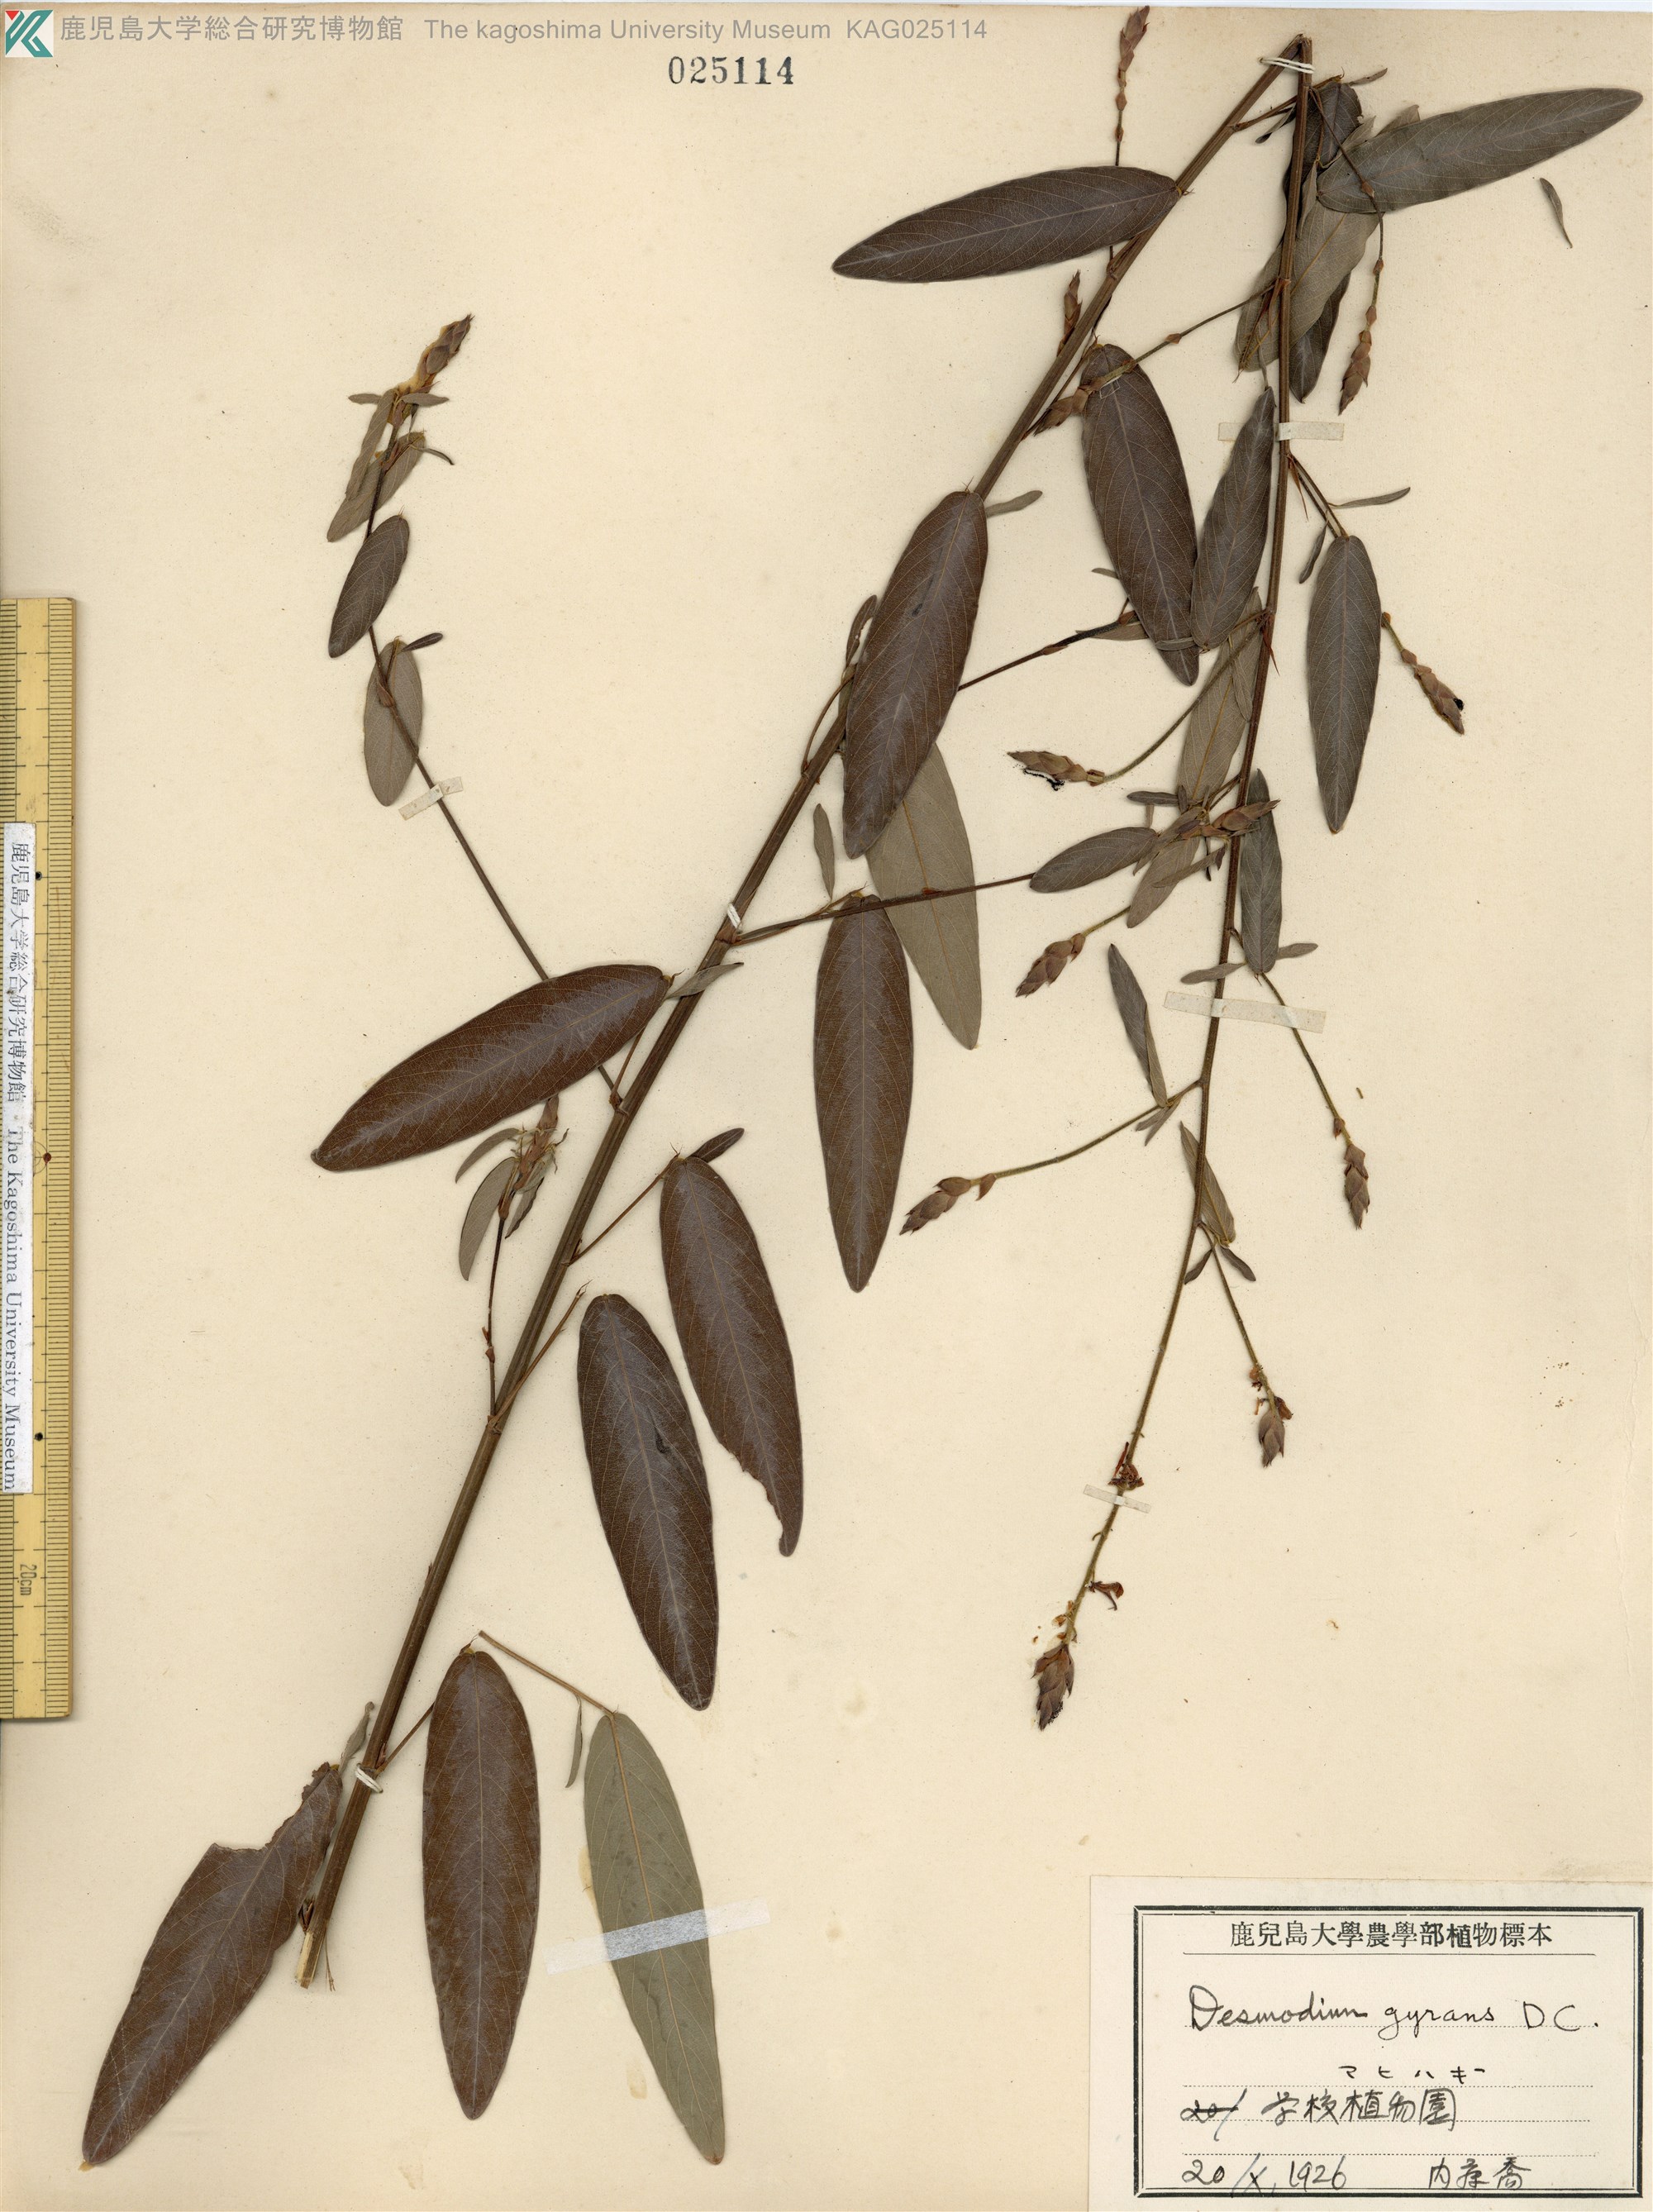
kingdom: Plantae
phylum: Tracheophyta
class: Magnoliopsida
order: Fabales
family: Fabaceae
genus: Codariocalyx
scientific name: Codariocalyx motorius
